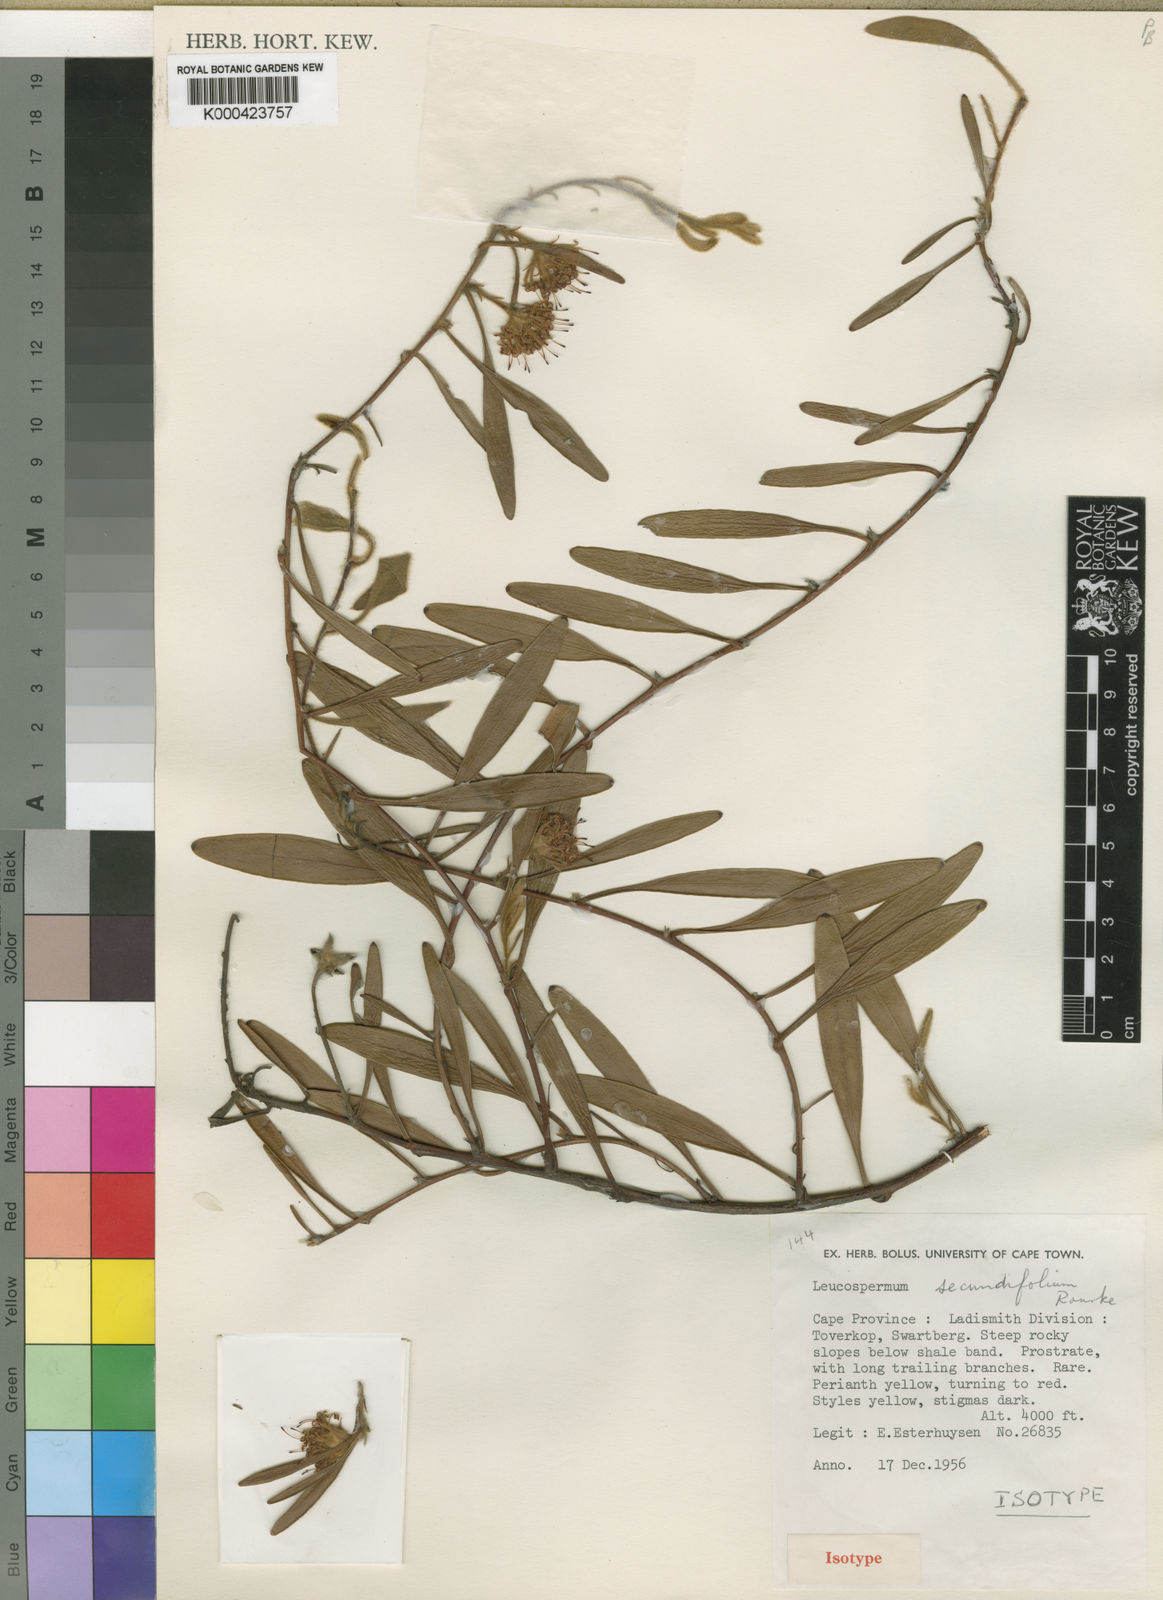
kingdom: Plantae
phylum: Tracheophyta
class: Magnoliopsida
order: Proteales
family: Proteaceae
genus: Leucospermum
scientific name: Leucospermum secundifolium
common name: Stalked pincushion
